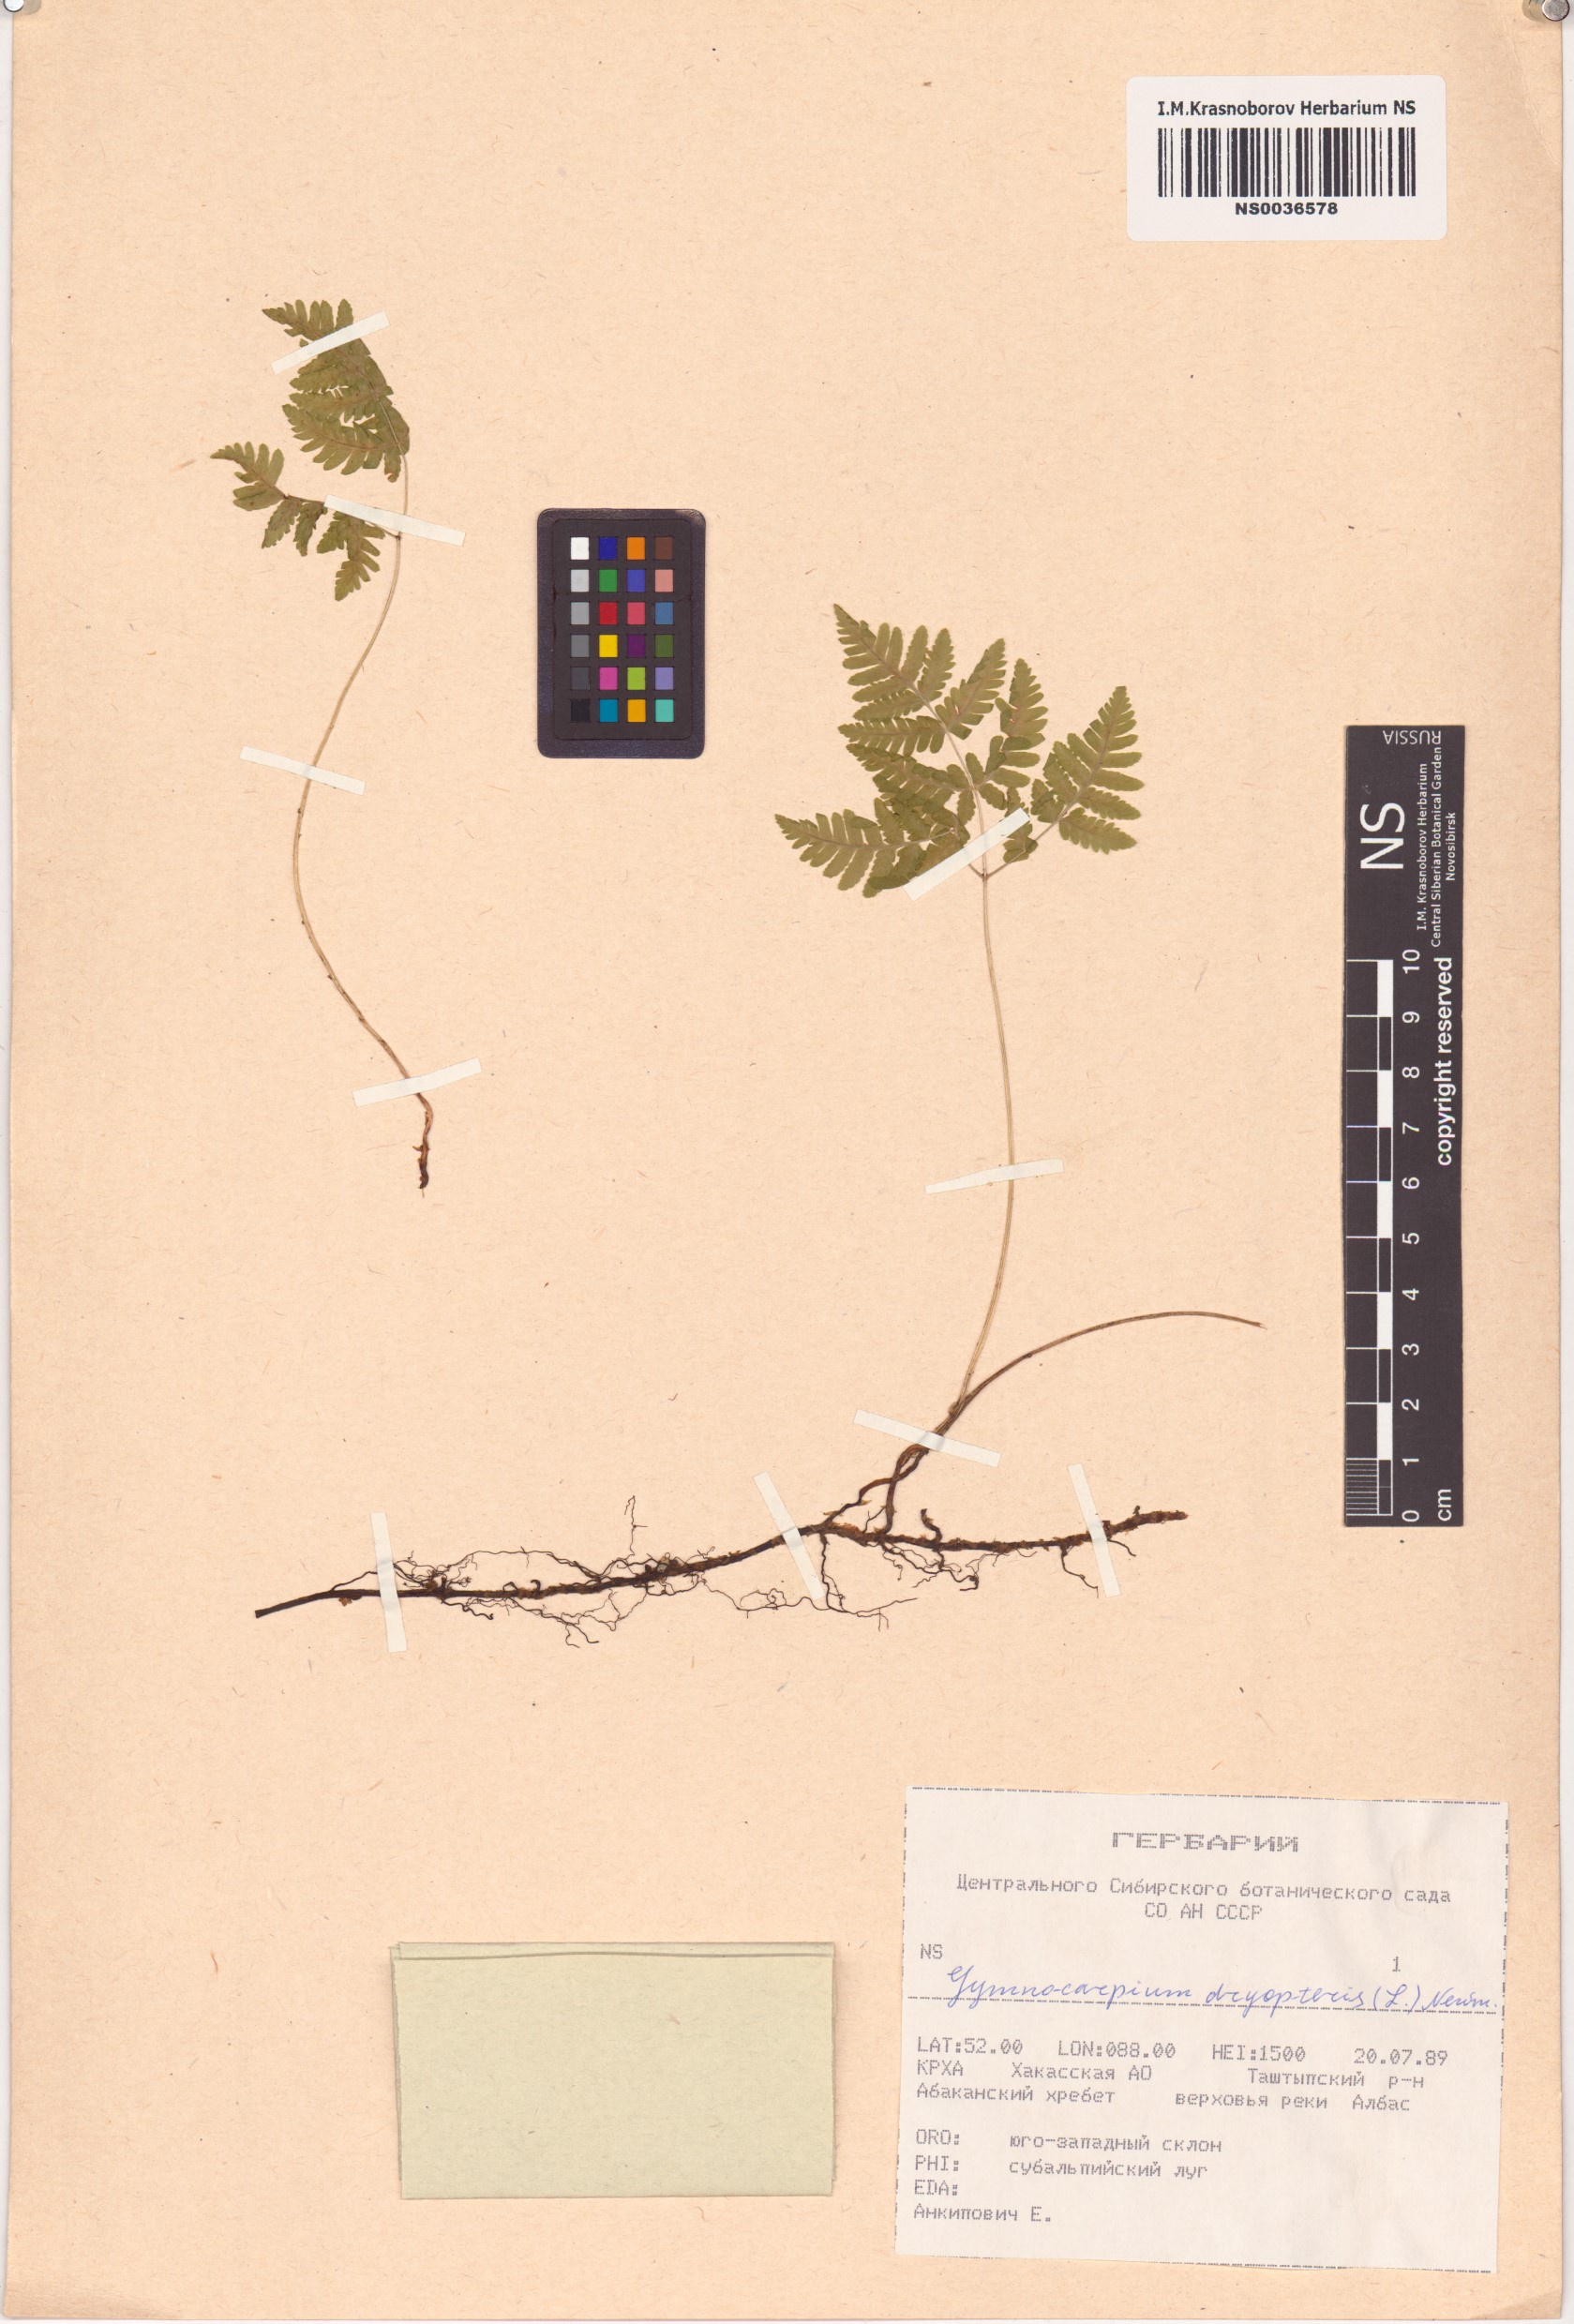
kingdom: Plantae
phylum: Tracheophyta
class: Polypodiopsida
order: Polypodiales
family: Cystopteridaceae
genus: Gymnocarpium
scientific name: Gymnocarpium dryopteris
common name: Oak fern
